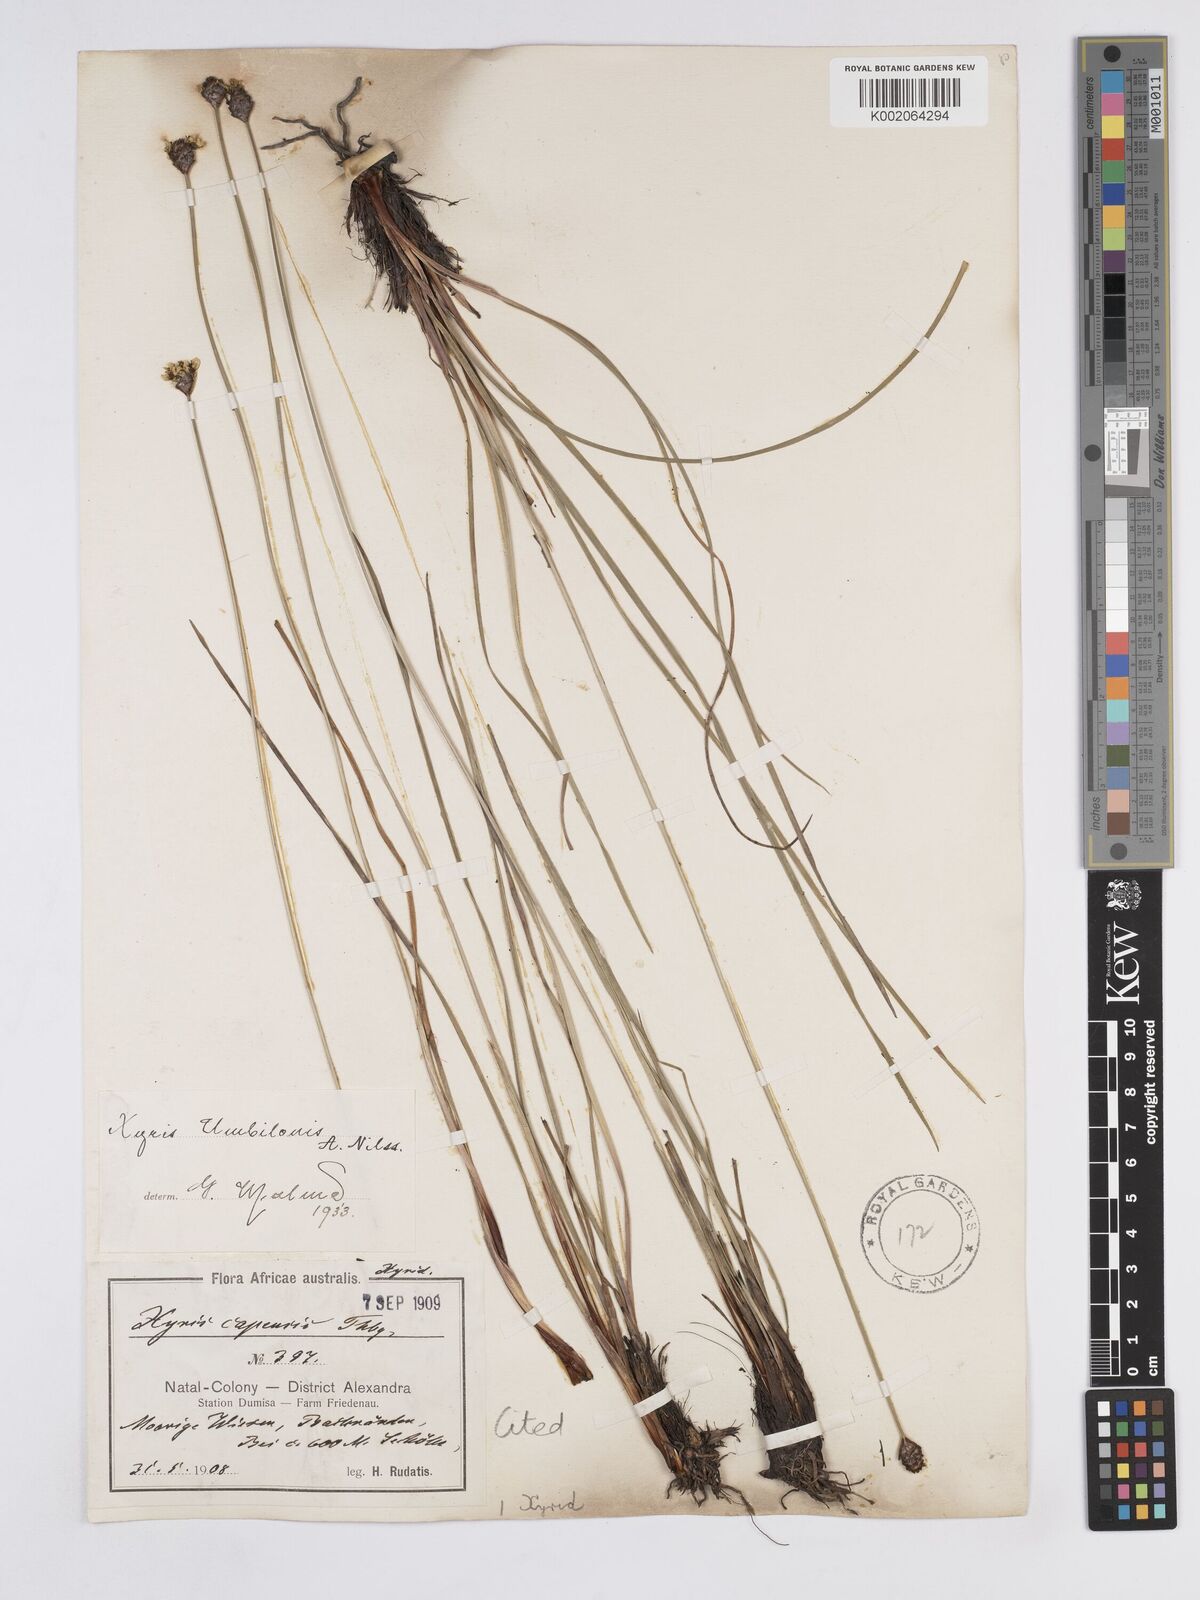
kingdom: Plantae
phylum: Tracheophyta
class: Liliopsida
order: Poales
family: Xyridaceae
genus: Xyris
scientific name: Xyris congensis
